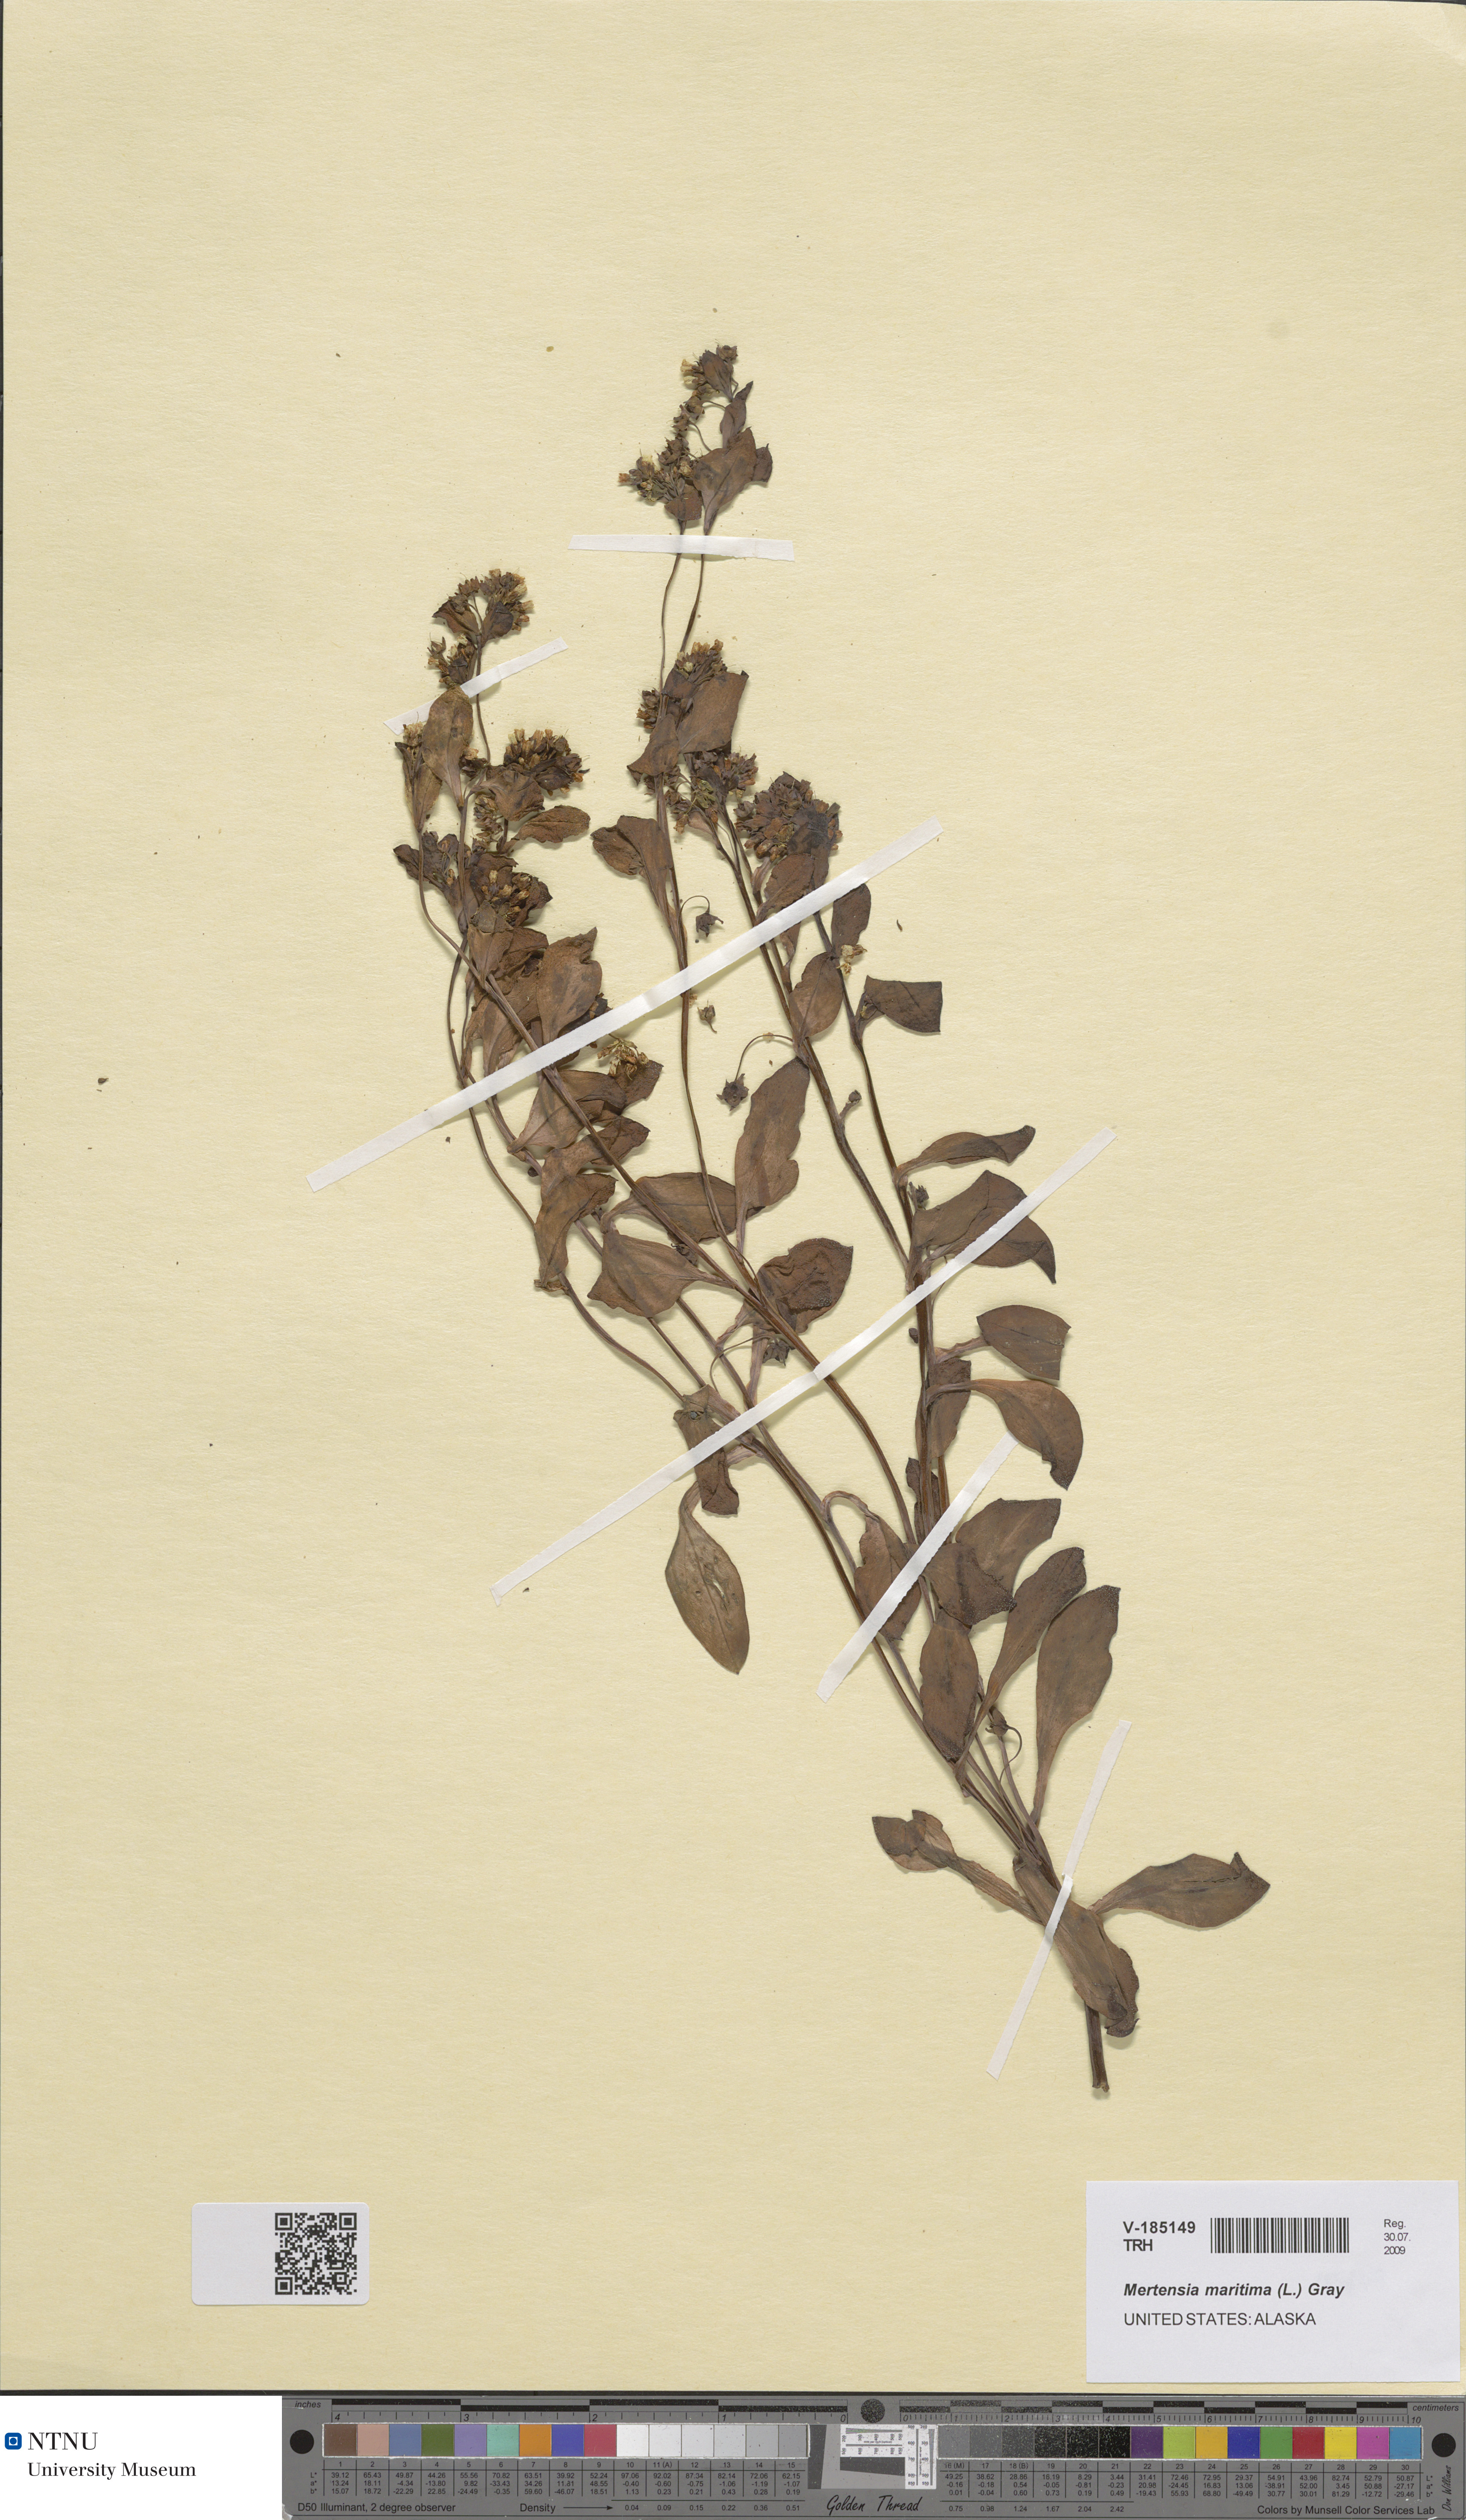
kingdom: Plantae
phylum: Tracheophyta
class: Magnoliopsida
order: Boraginales
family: Boraginaceae
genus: Mertensia
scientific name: Mertensia maritima
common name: Oysterplant
